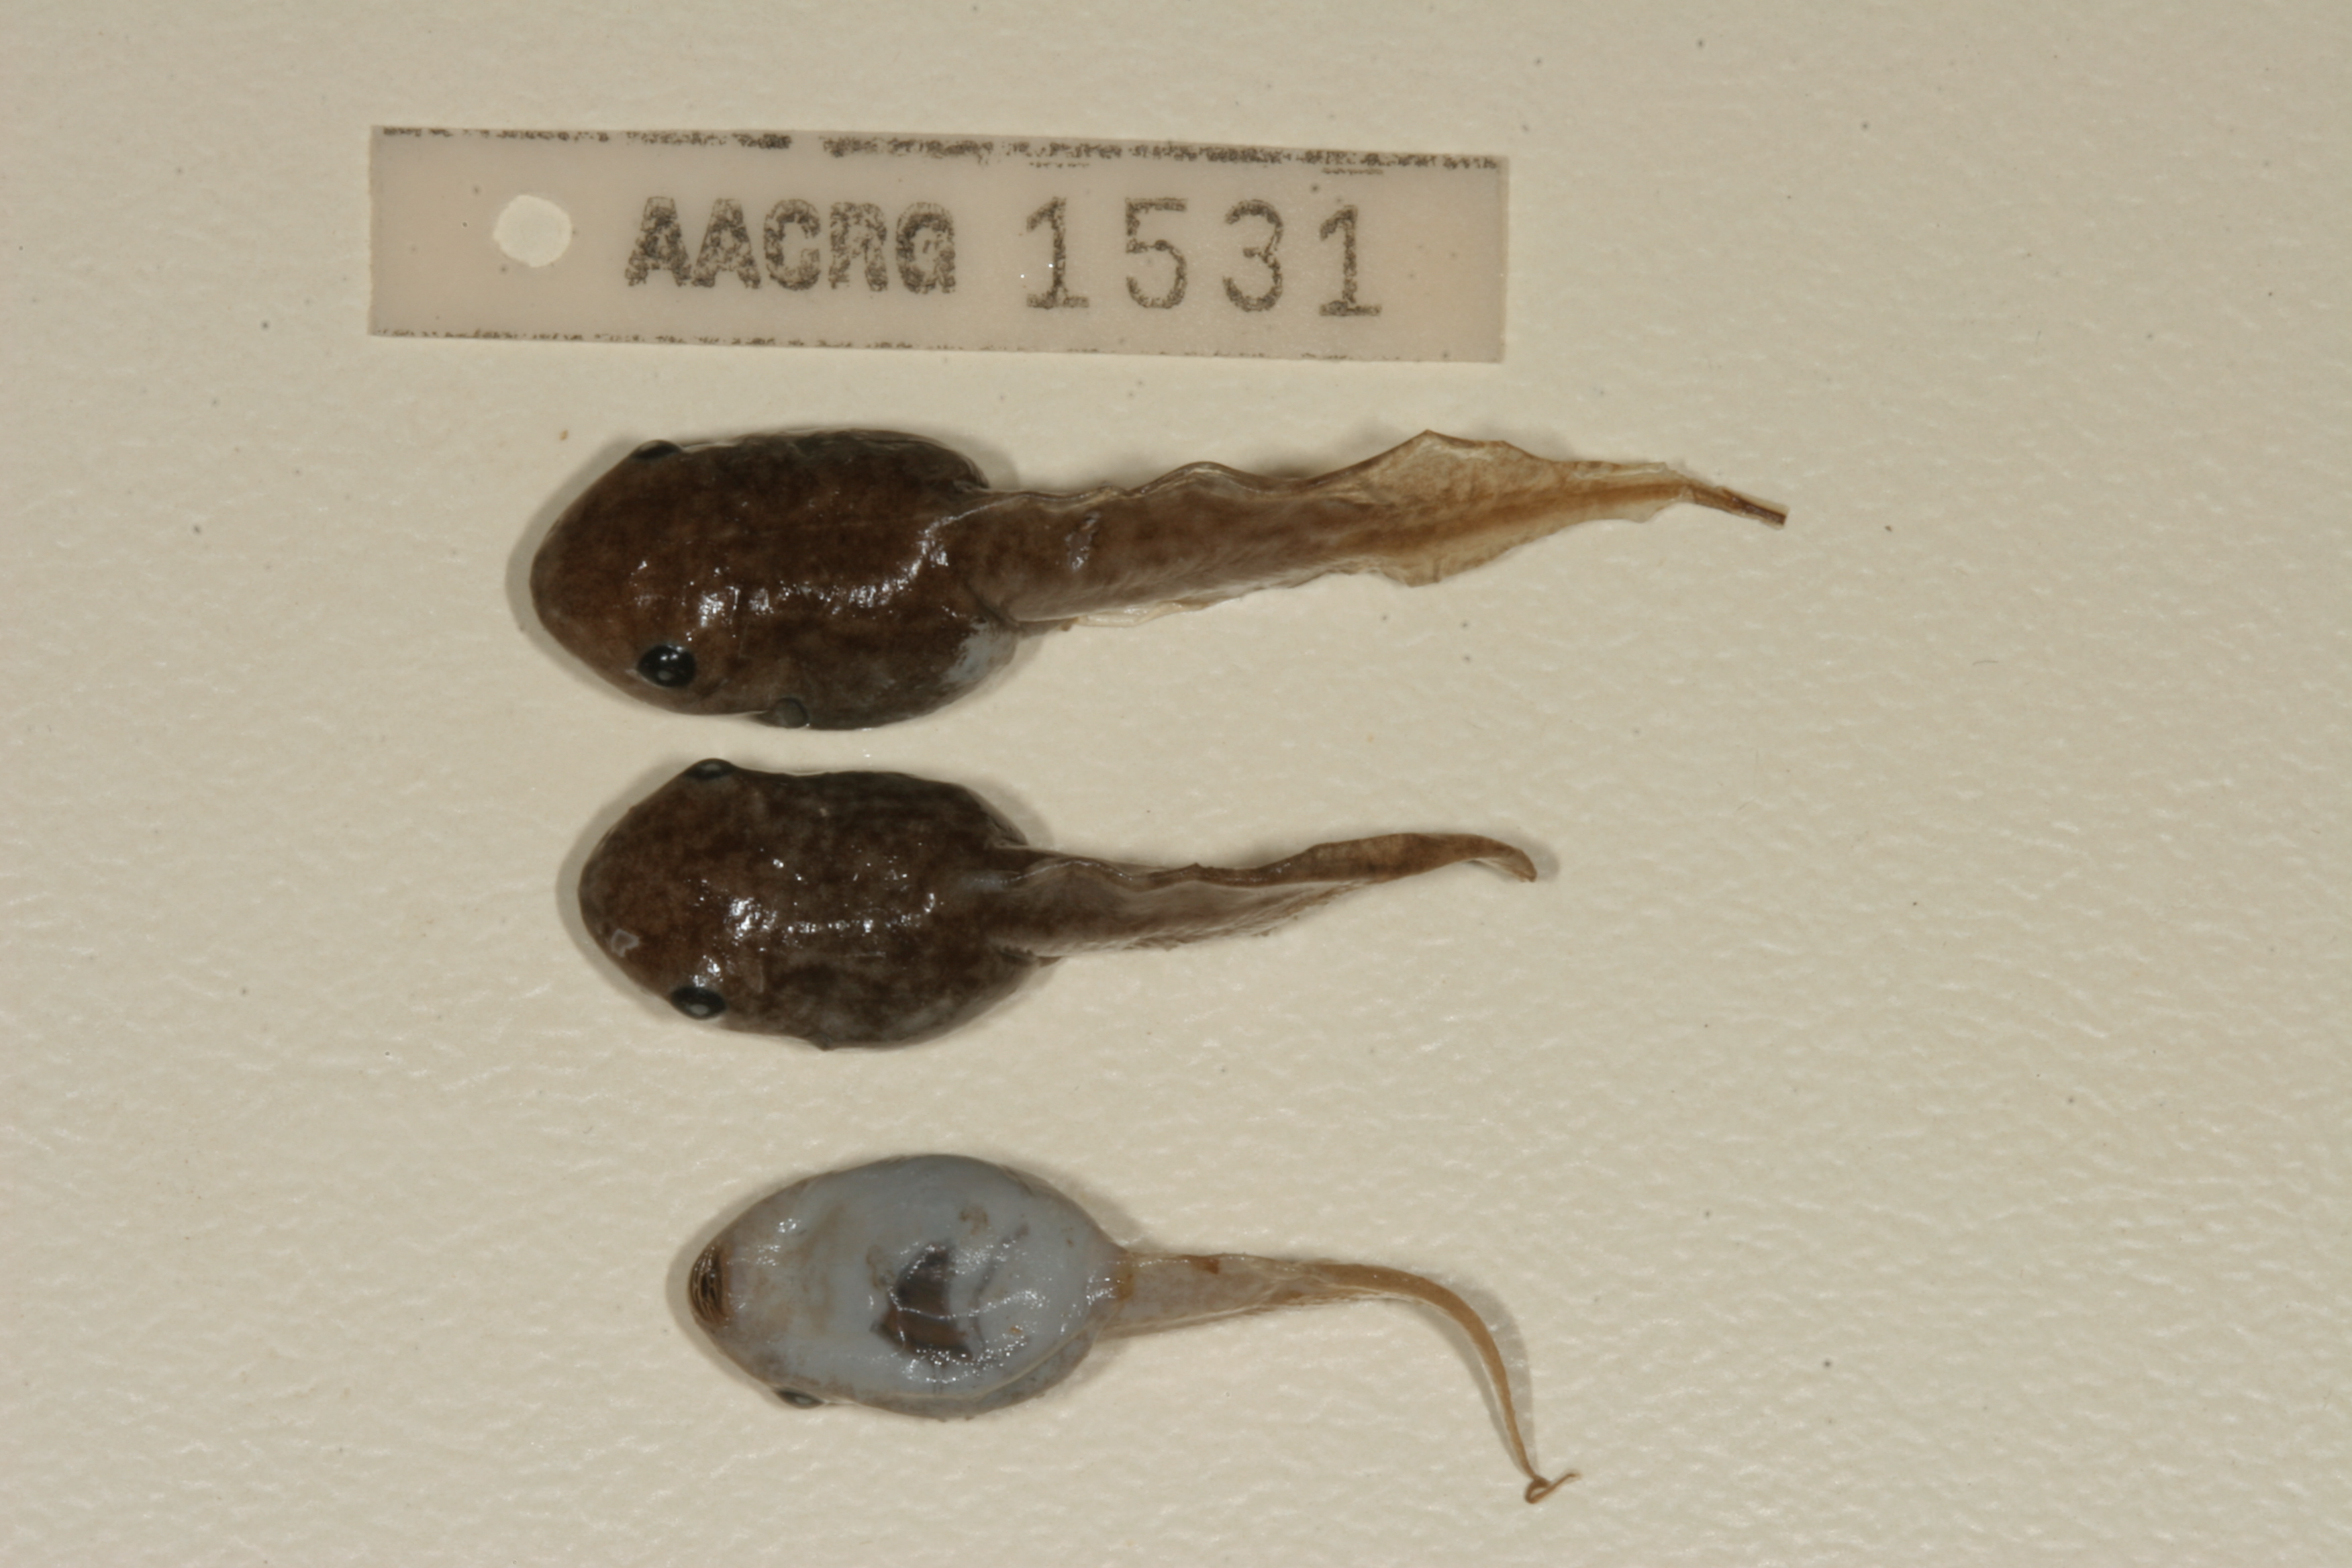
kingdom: Animalia
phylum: Chordata
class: Amphibia
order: Anura
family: Hemisotidae
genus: Hemisus
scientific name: Hemisus marmoratus
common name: Mottled shovel-nosed frog
